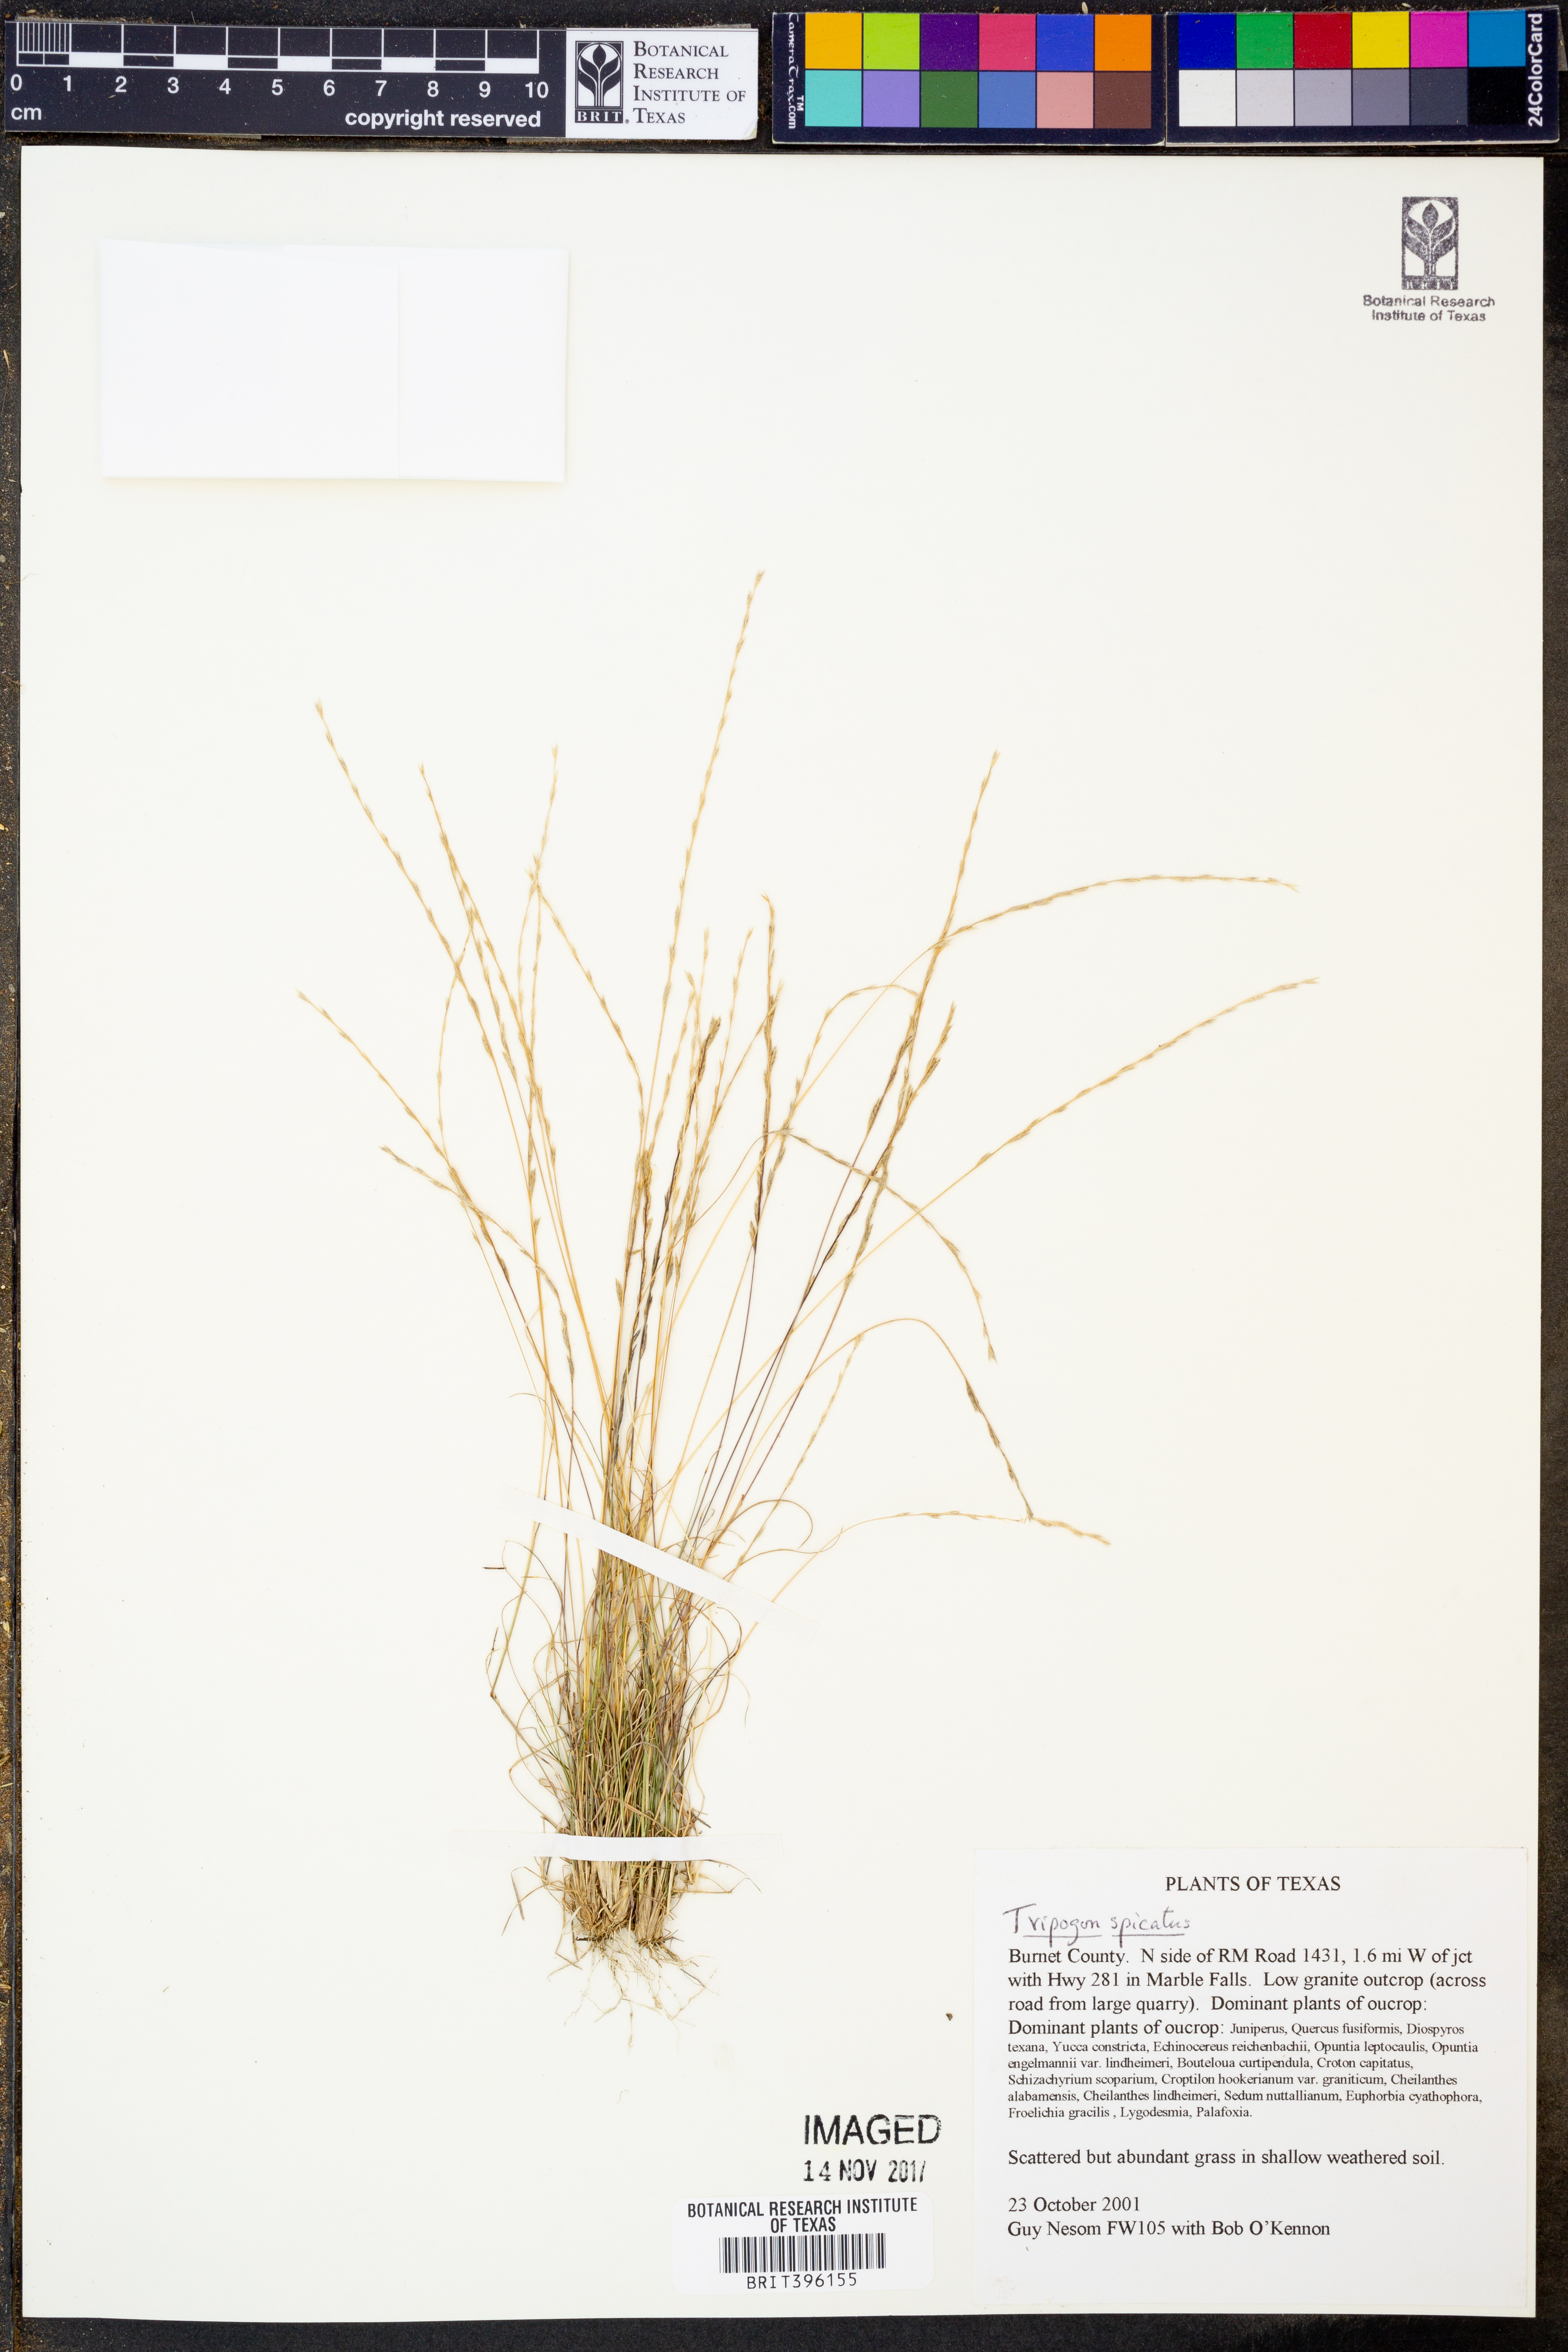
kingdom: Plantae
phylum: Tracheophyta
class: Liliopsida
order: Poales
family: Poaceae
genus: Tripogonella
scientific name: Tripogonella spicata
